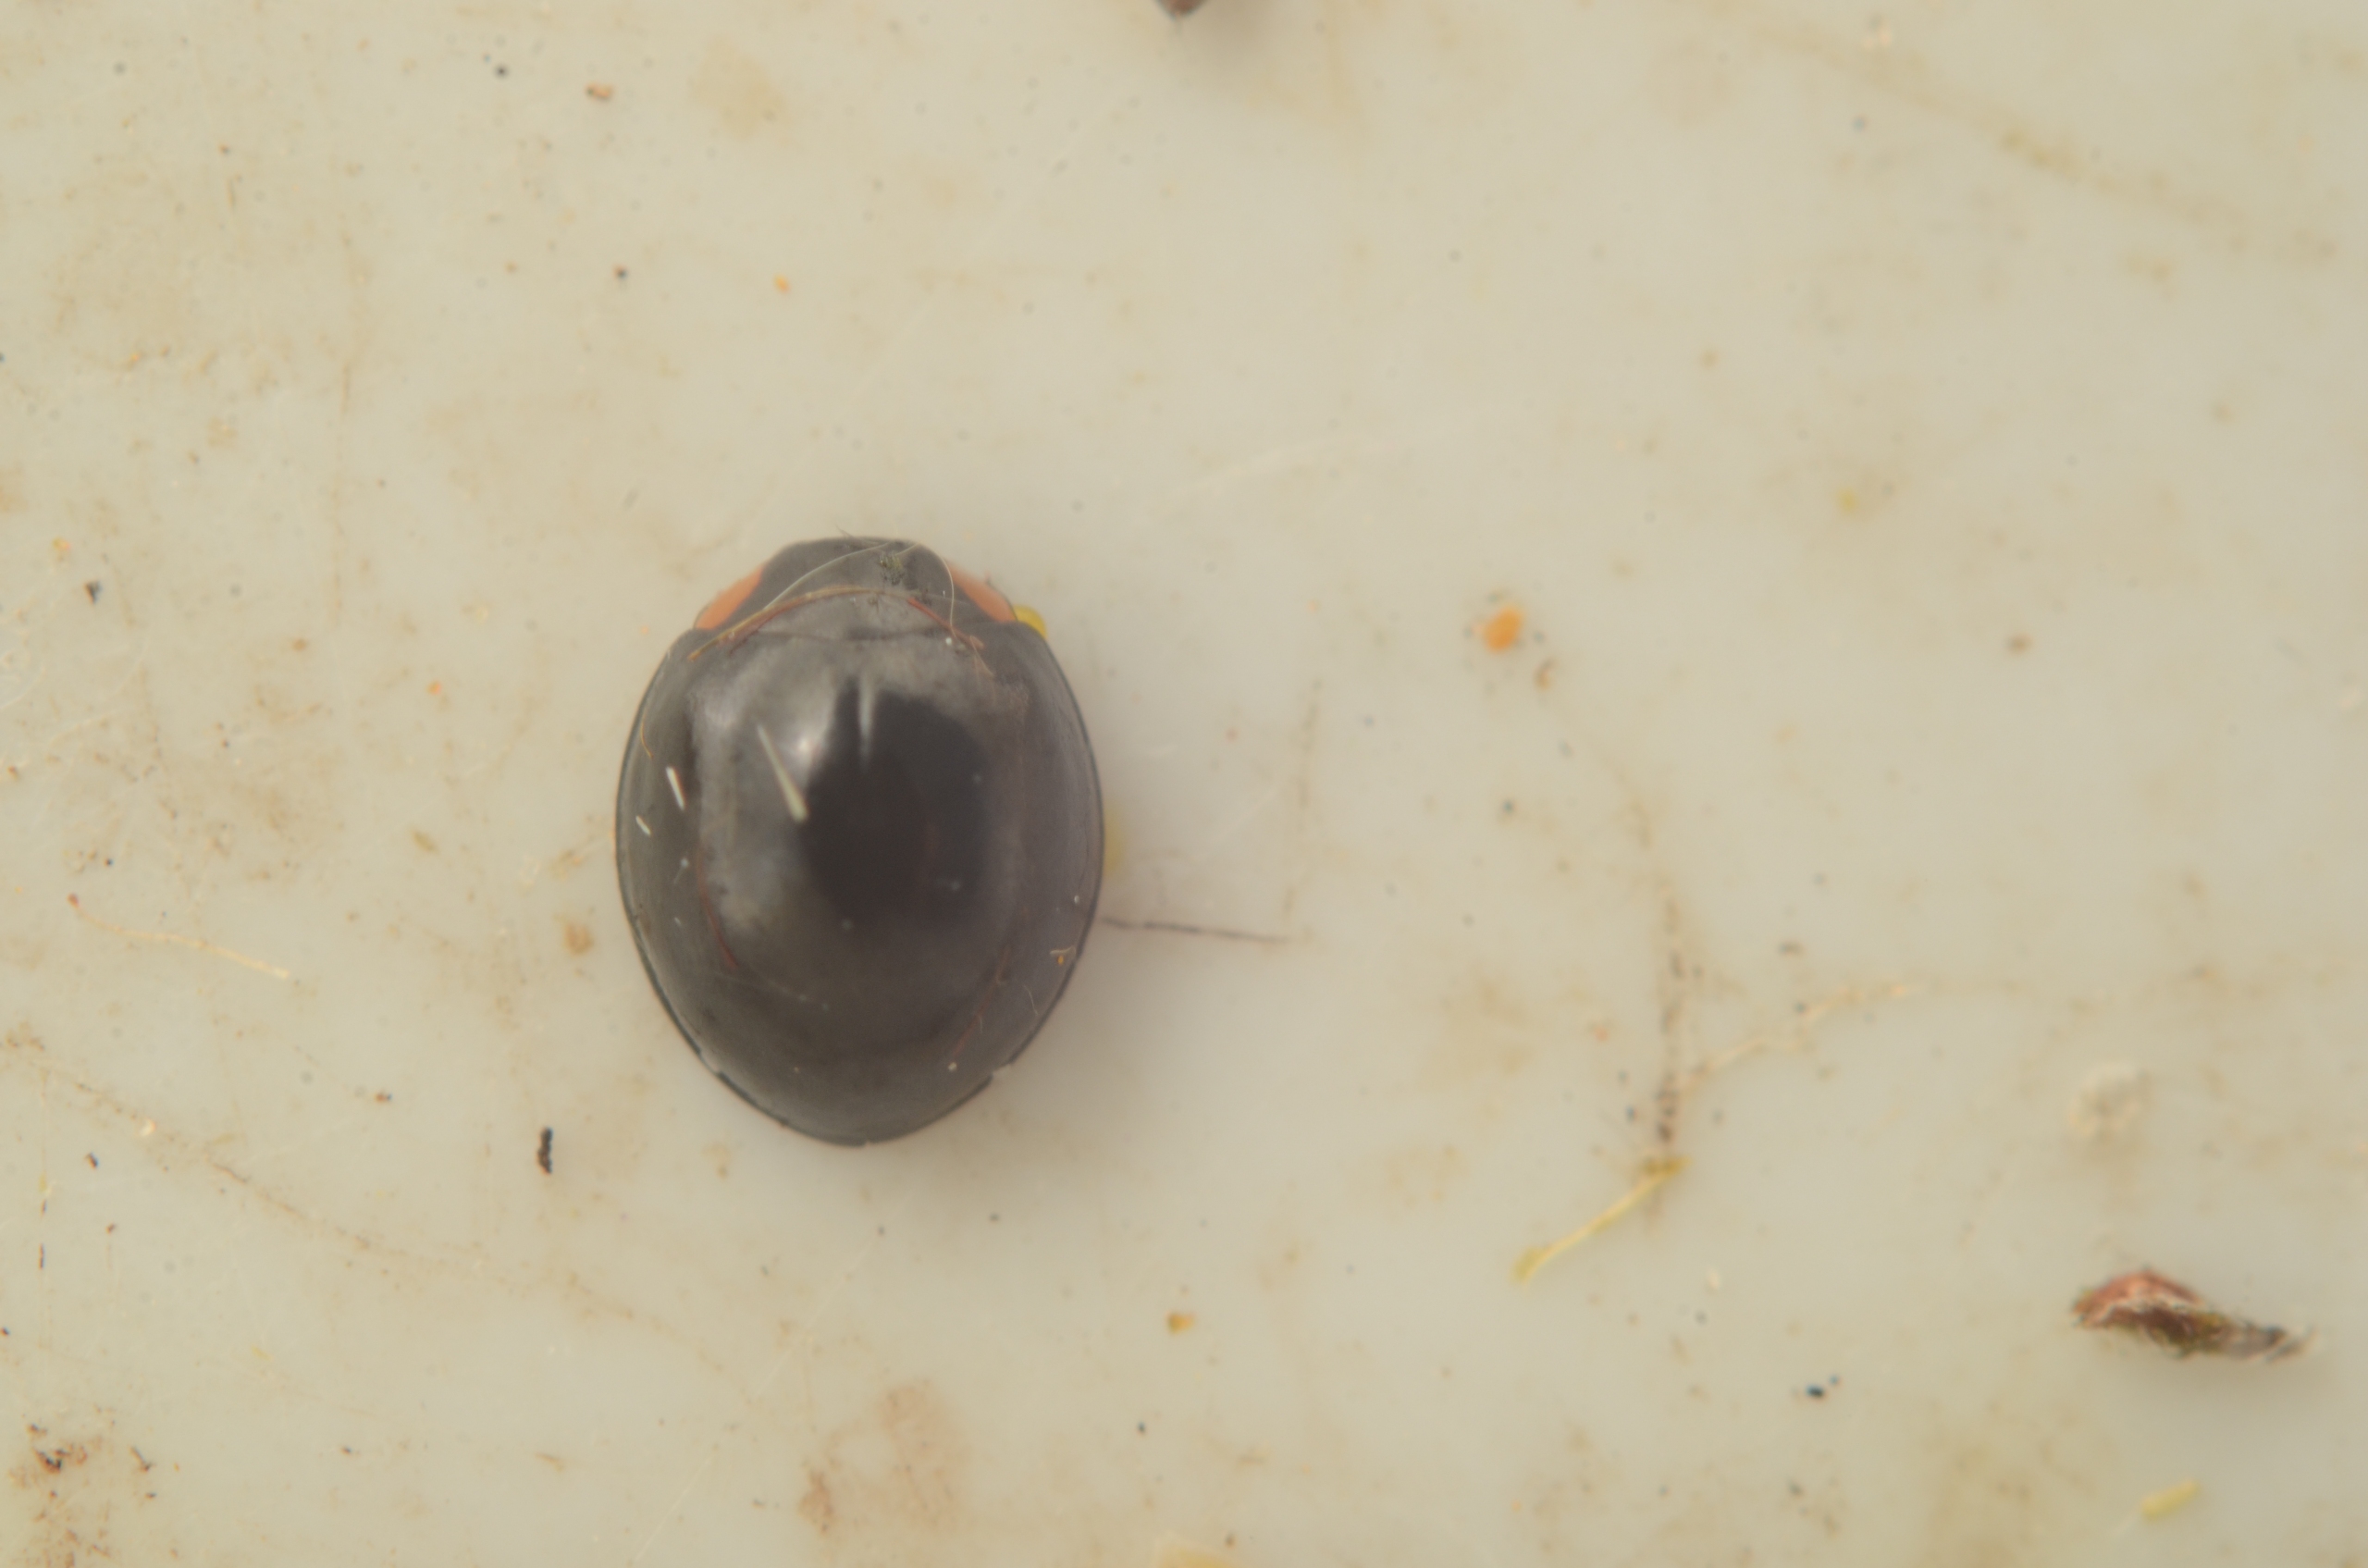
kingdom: Animalia
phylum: Arthropoda
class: Insecta
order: Coleoptera
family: Coccinellidae
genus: Parexochomus
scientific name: Parexochomus nigromaculatus
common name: Mørk mariehøne
